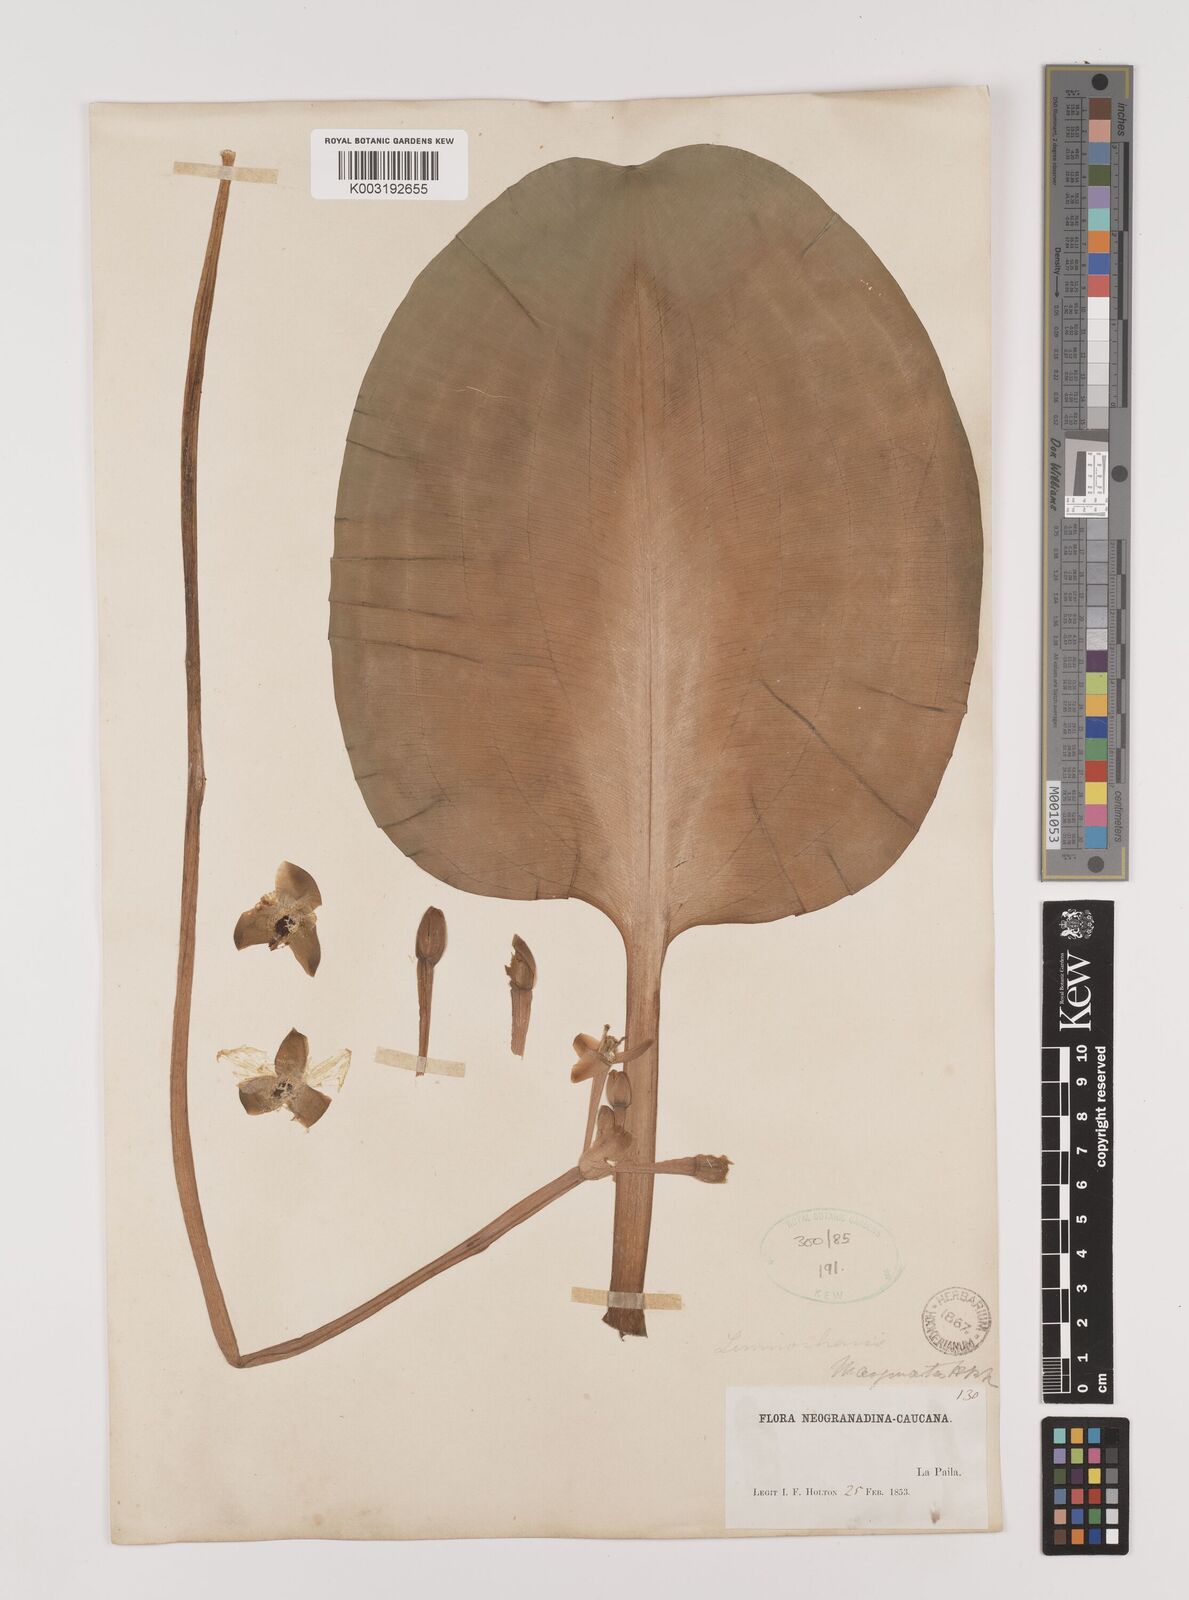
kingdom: Plantae
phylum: Tracheophyta
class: Liliopsida
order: Alismatales
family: Alismataceae
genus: Limnocharis
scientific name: Limnocharis flava
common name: Sawah-flower-rush
